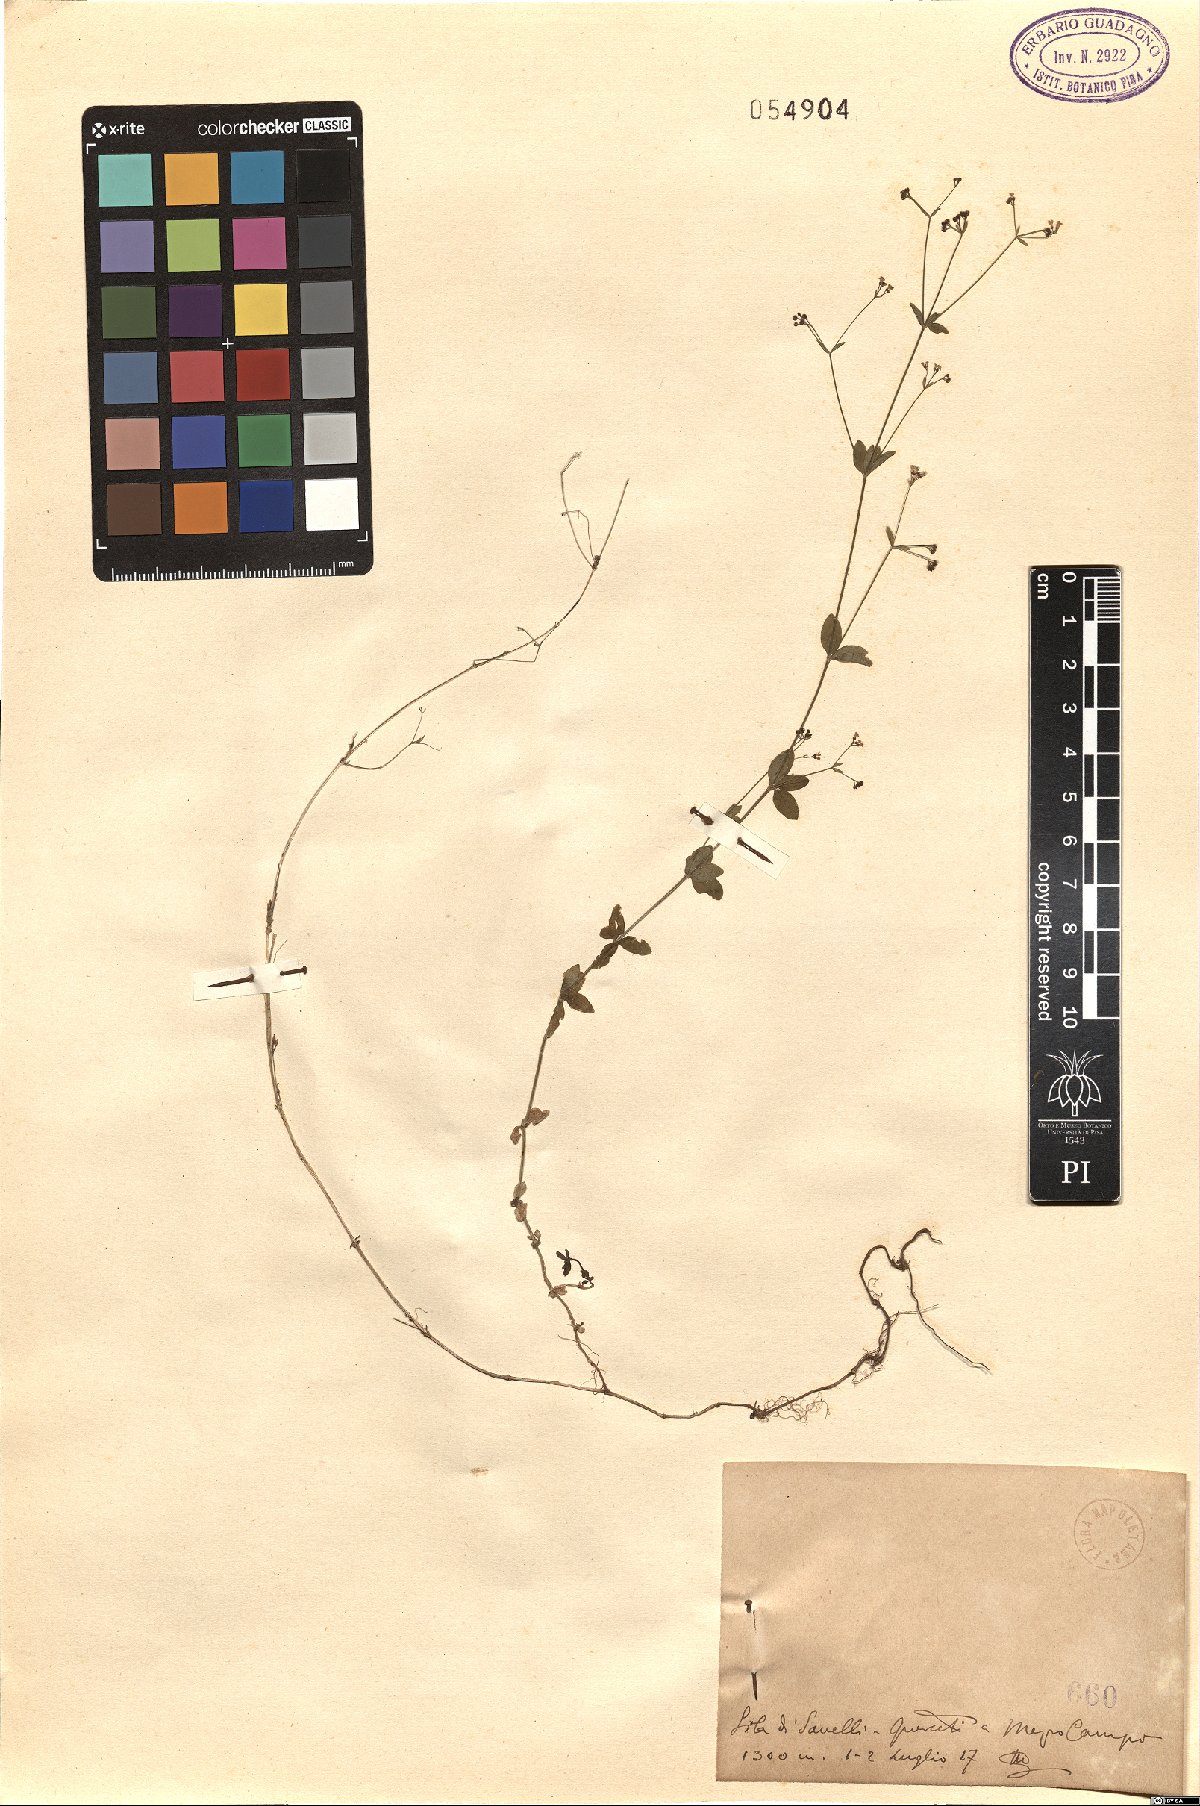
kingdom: Plantae
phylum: Tracheophyta
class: Magnoliopsida
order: Gentianales
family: Rubiaceae
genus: Asperula
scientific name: Asperula
